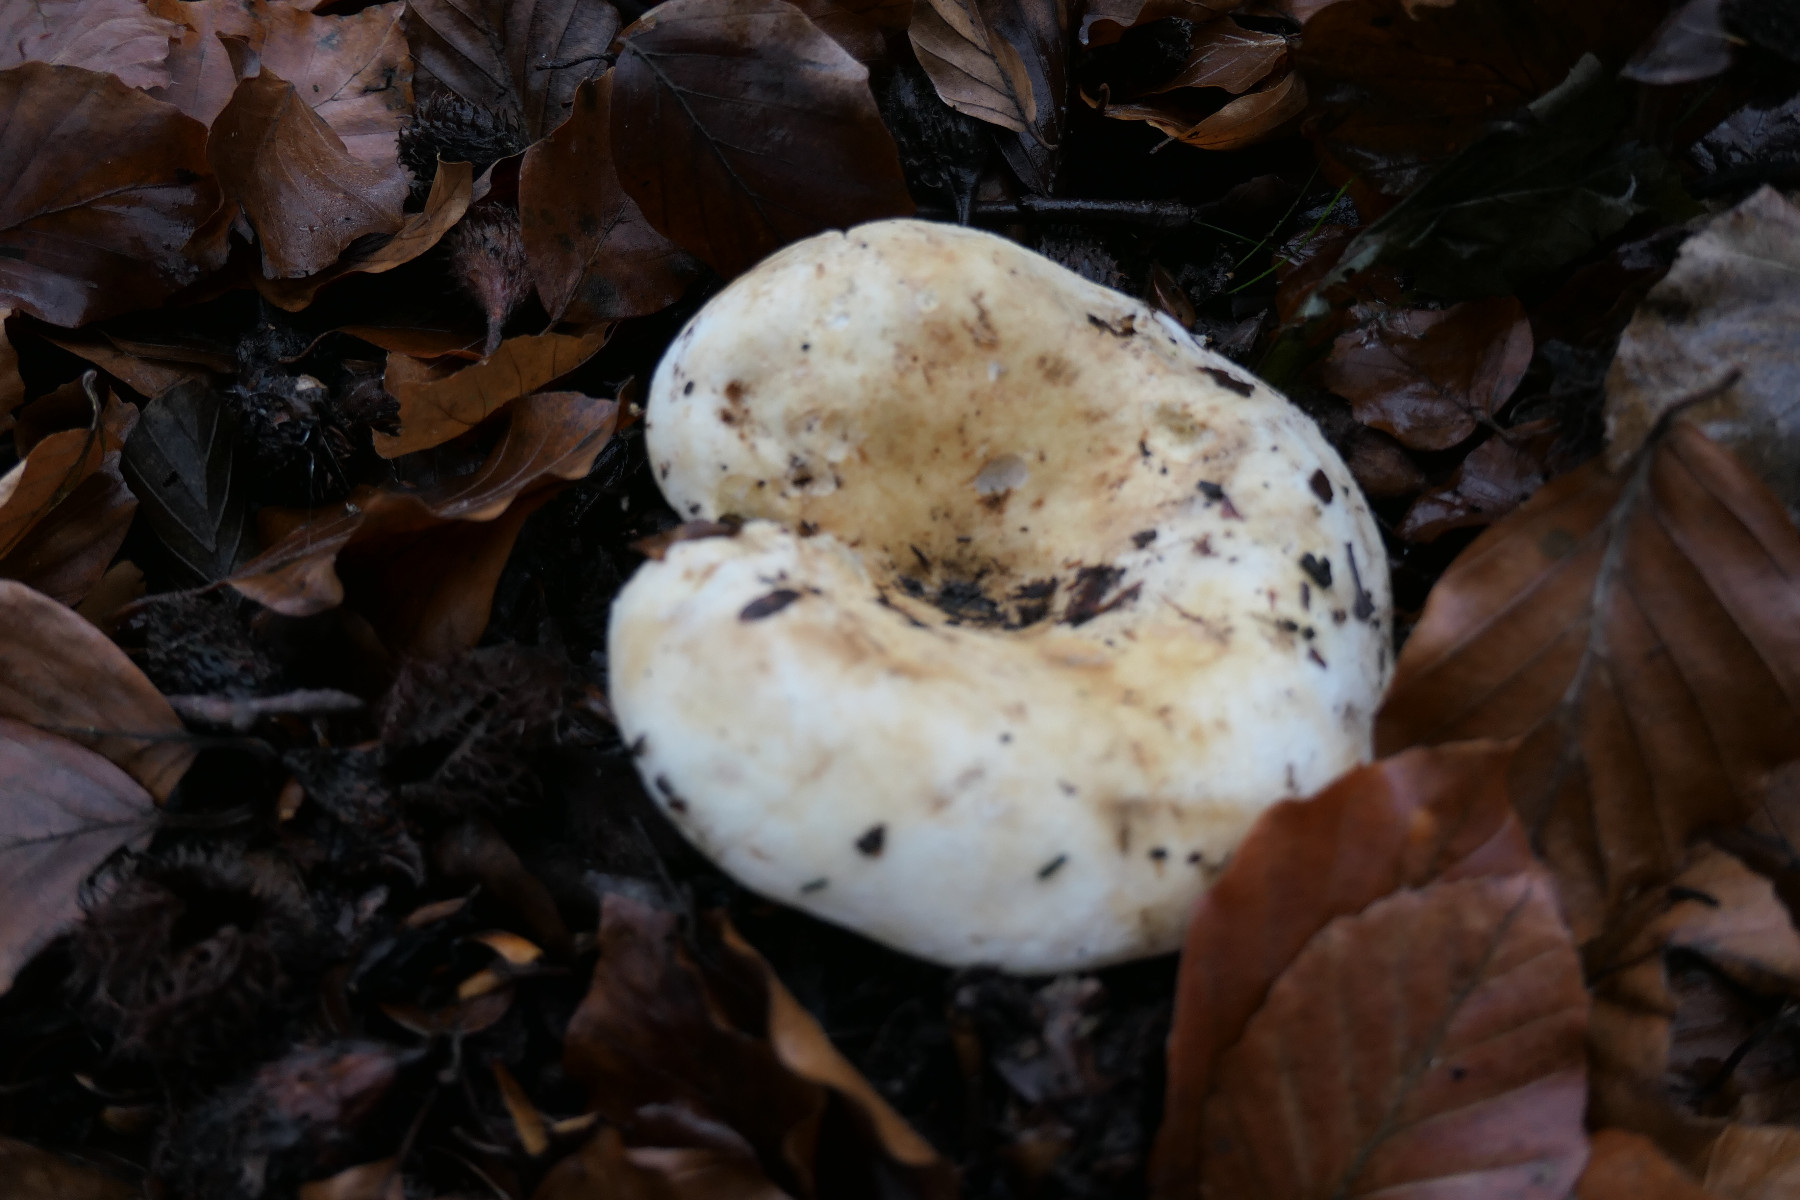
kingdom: Fungi
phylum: Basidiomycota
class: Agaricomycetes
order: Russulales
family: Russulaceae
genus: Lactifluus
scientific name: Lactifluus vellereus
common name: hvidfiltet mælkehat
